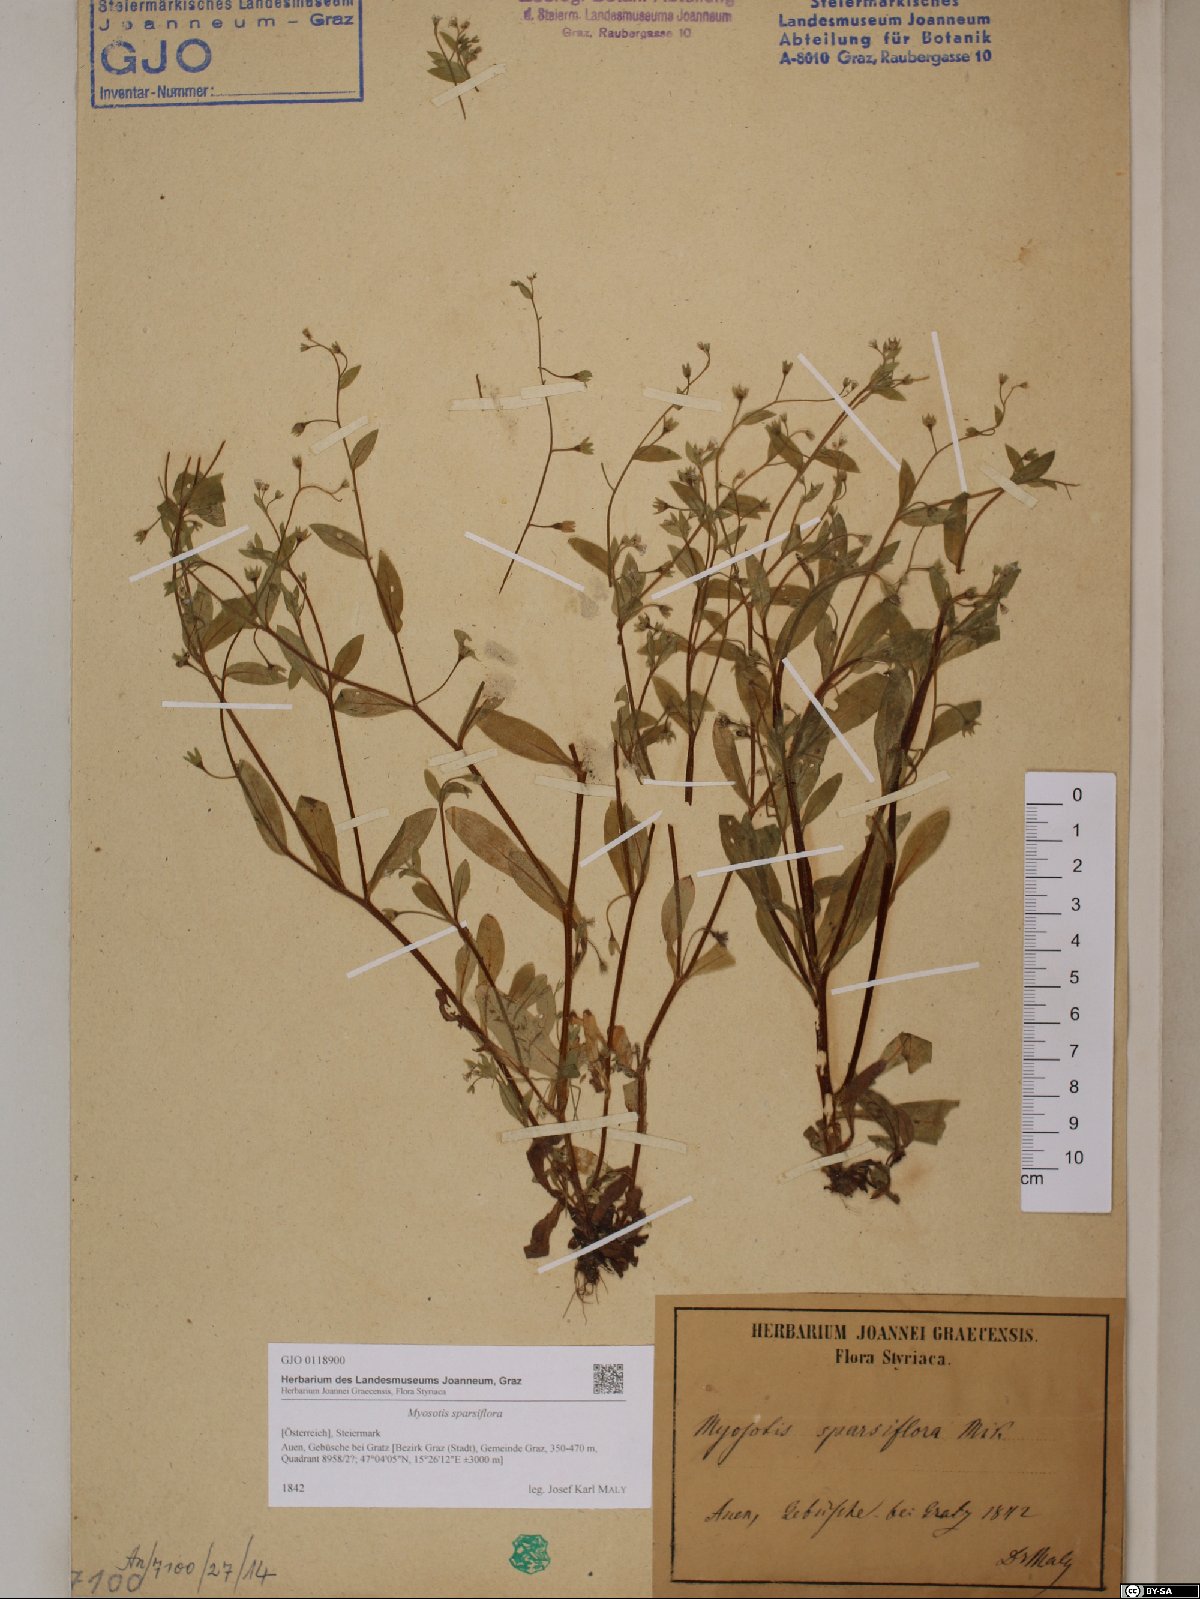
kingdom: Plantae
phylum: Tracheophyta
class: Magnoliopsida
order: Boraginales
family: Boraginaceae
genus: Myosotis
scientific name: Myosotis sparsiflora
